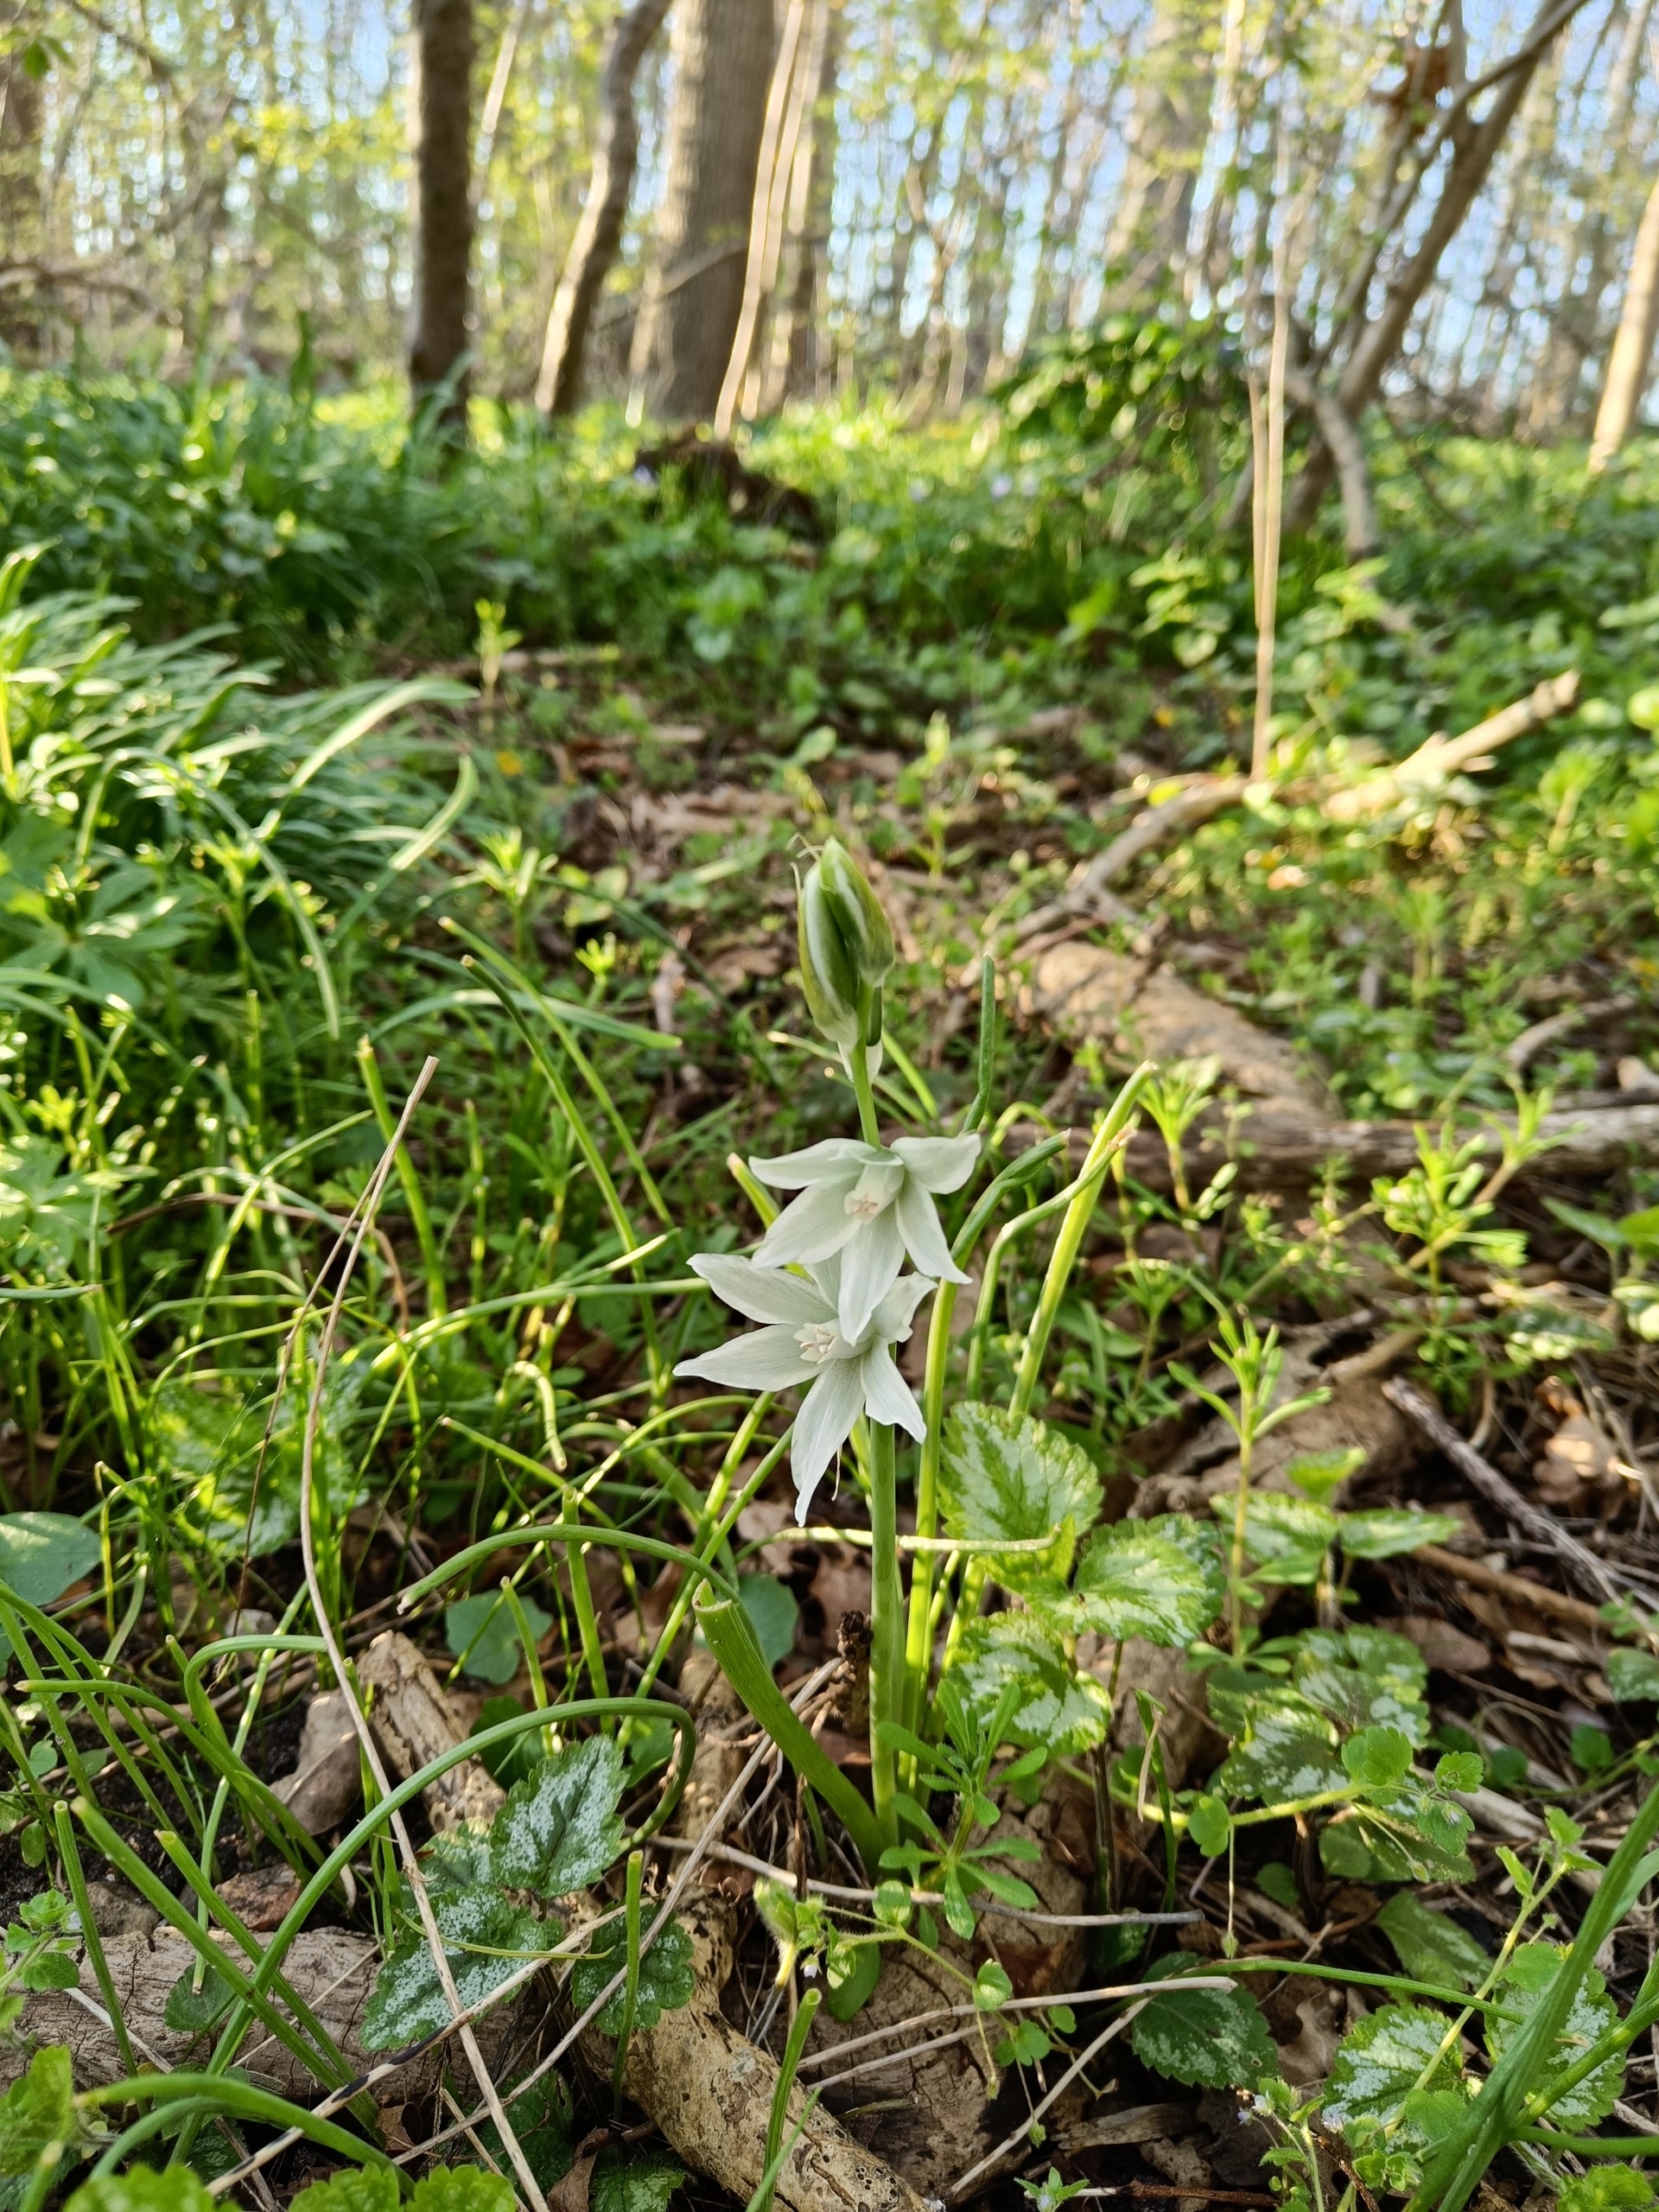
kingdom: Plantae
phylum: Tracheophyta
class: Liliopsida
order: Asparagales
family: Asparagaceae
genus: Ornithogalum
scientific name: Ornithogalum nutans
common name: Nikkende fuglemælk
